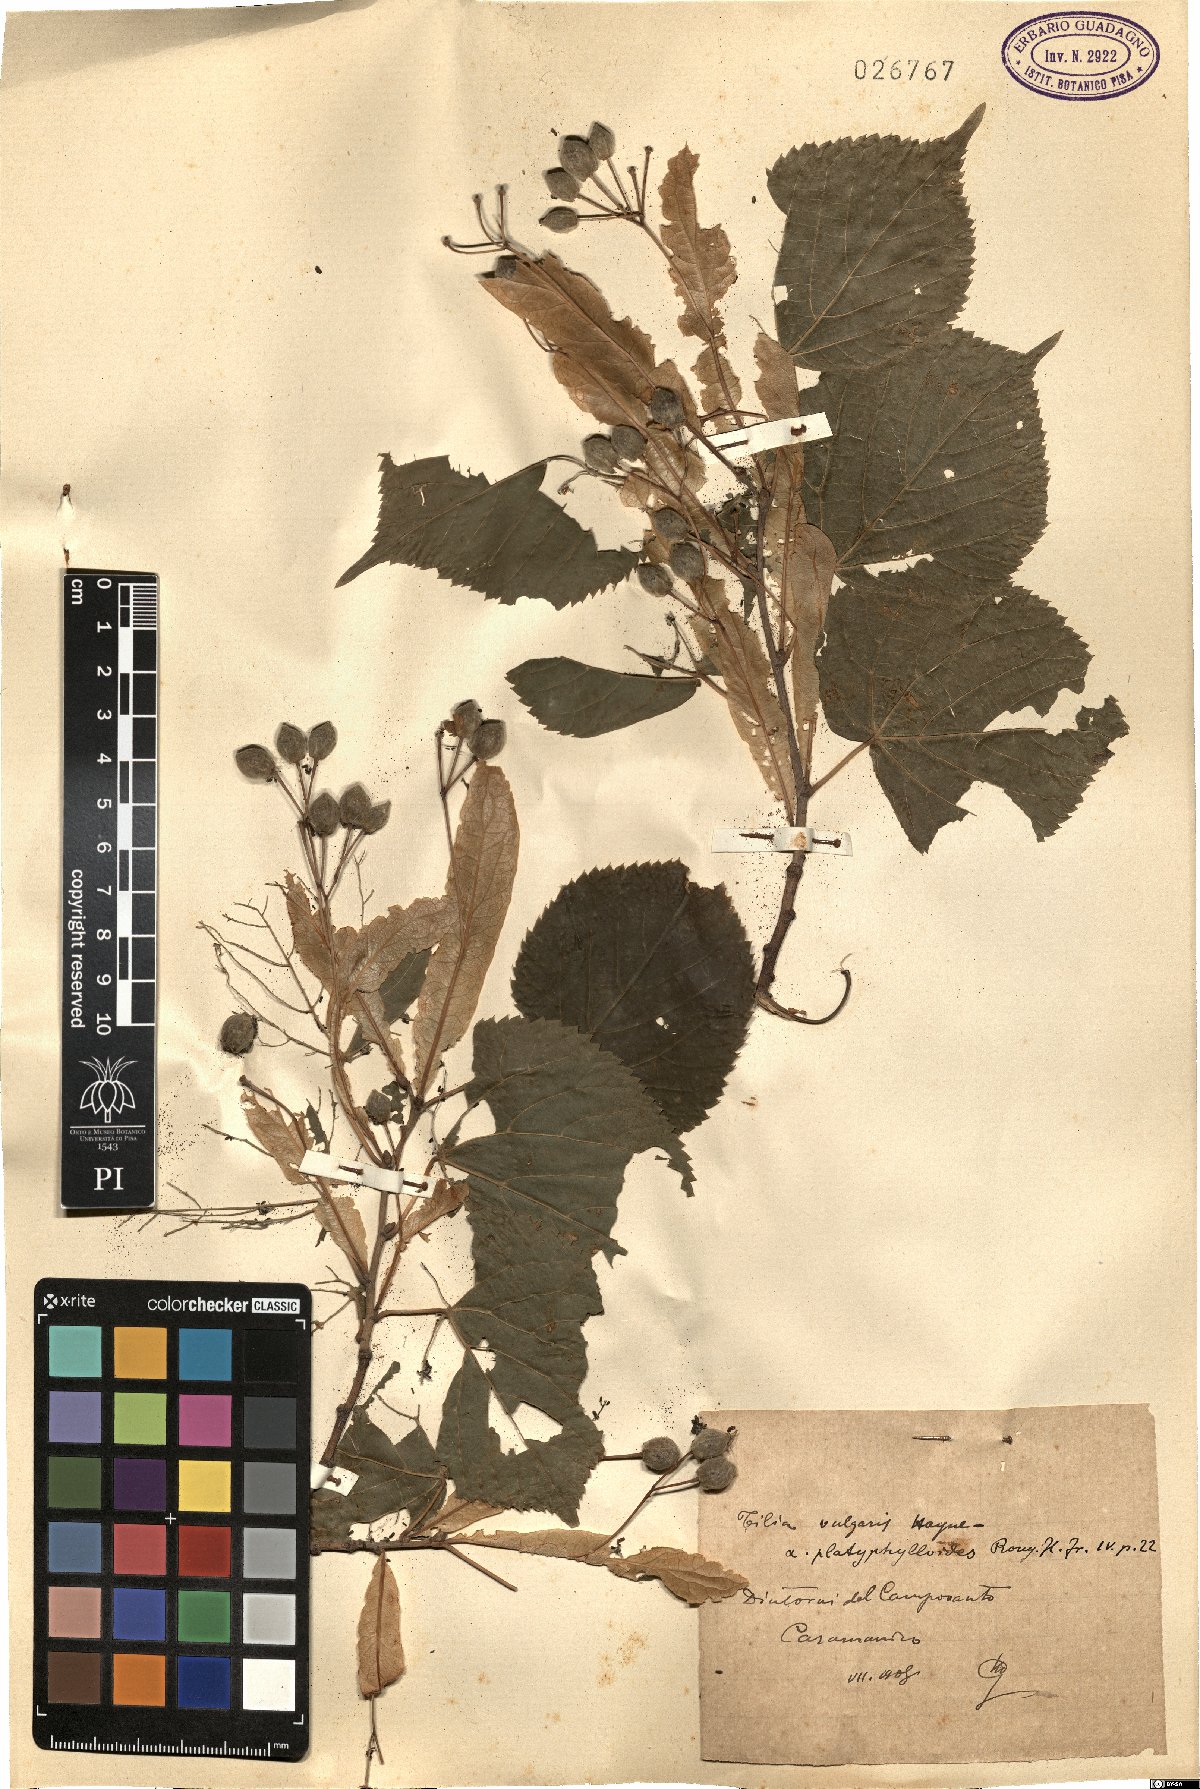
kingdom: Plantae
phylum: Tracheophyta
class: Magnoliopsida
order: Malvales
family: Malvaceae
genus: Tilia
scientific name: Tilia europaea
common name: European linden
